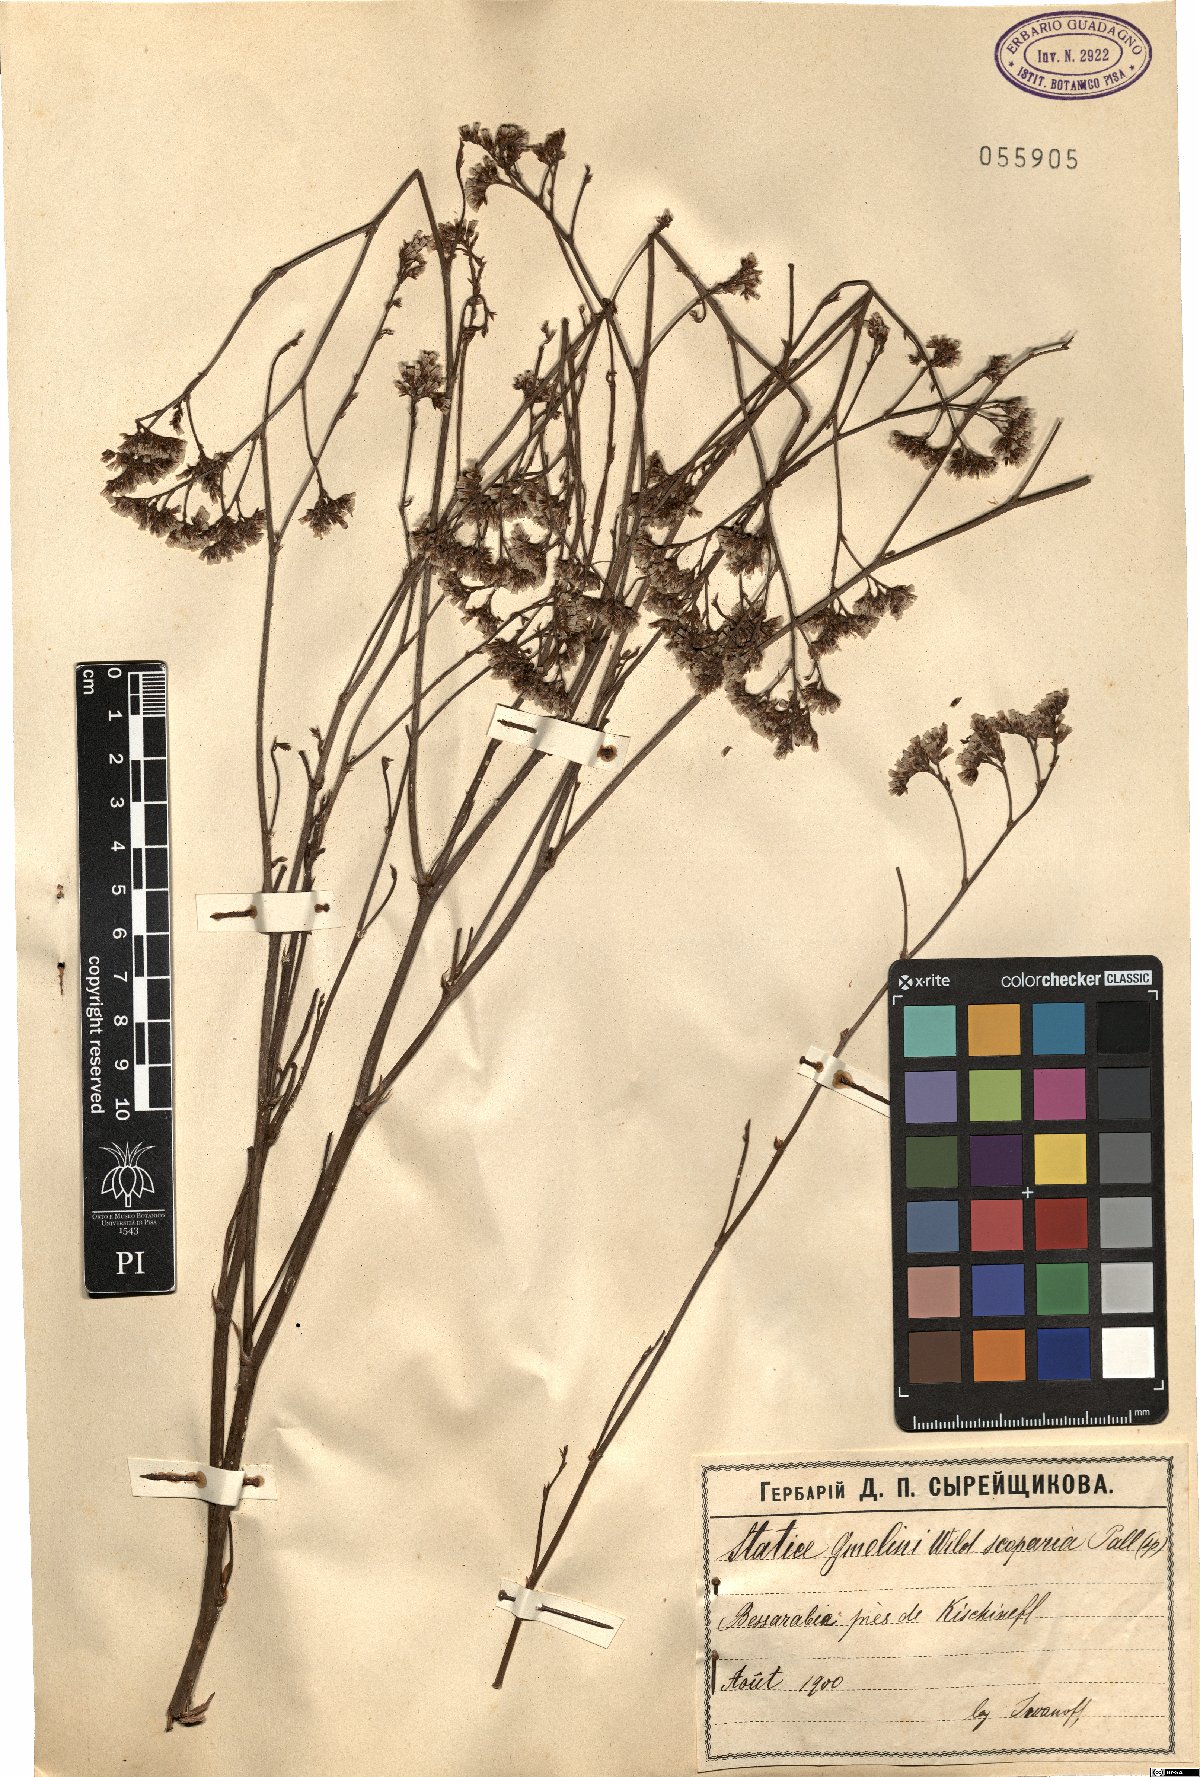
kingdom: Plantae
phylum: Tracheophyta
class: Magnoliopsida
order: Caryophyllales
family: Plumbaginaceae
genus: Limonium
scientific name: Limonium gmelini
